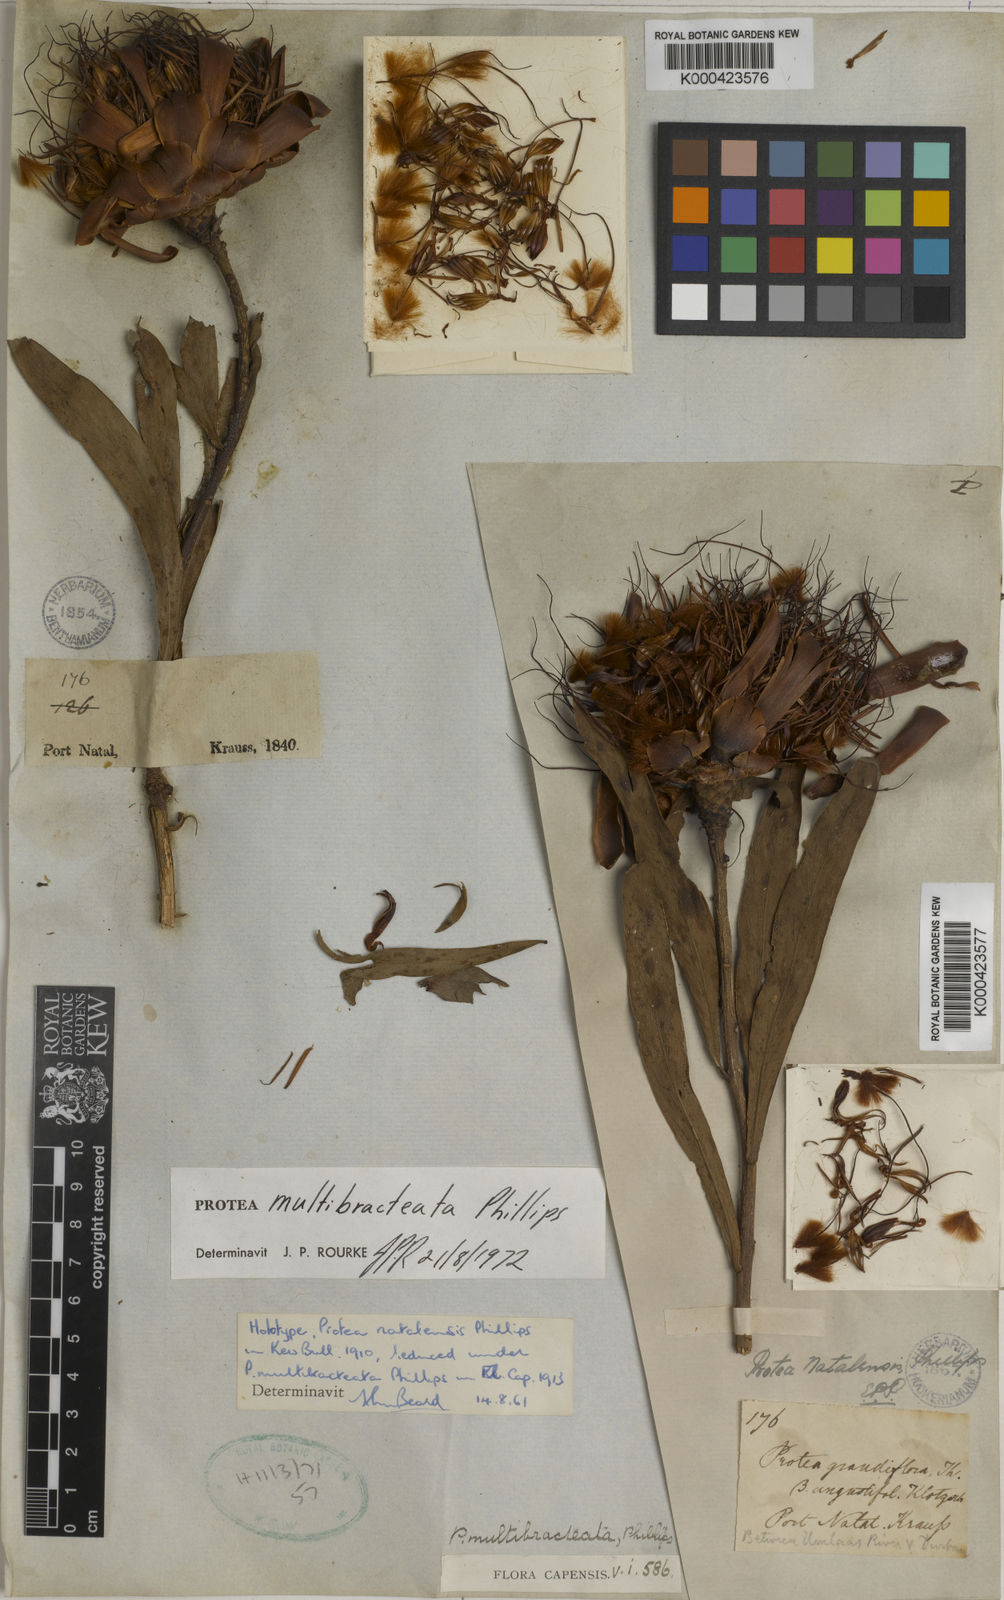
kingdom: Plantae
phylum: Tracheophyta
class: Magnoliopsida
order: Proteales
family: Proteaceae
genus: Protea
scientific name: Protea caffra
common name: Common sugarbush
